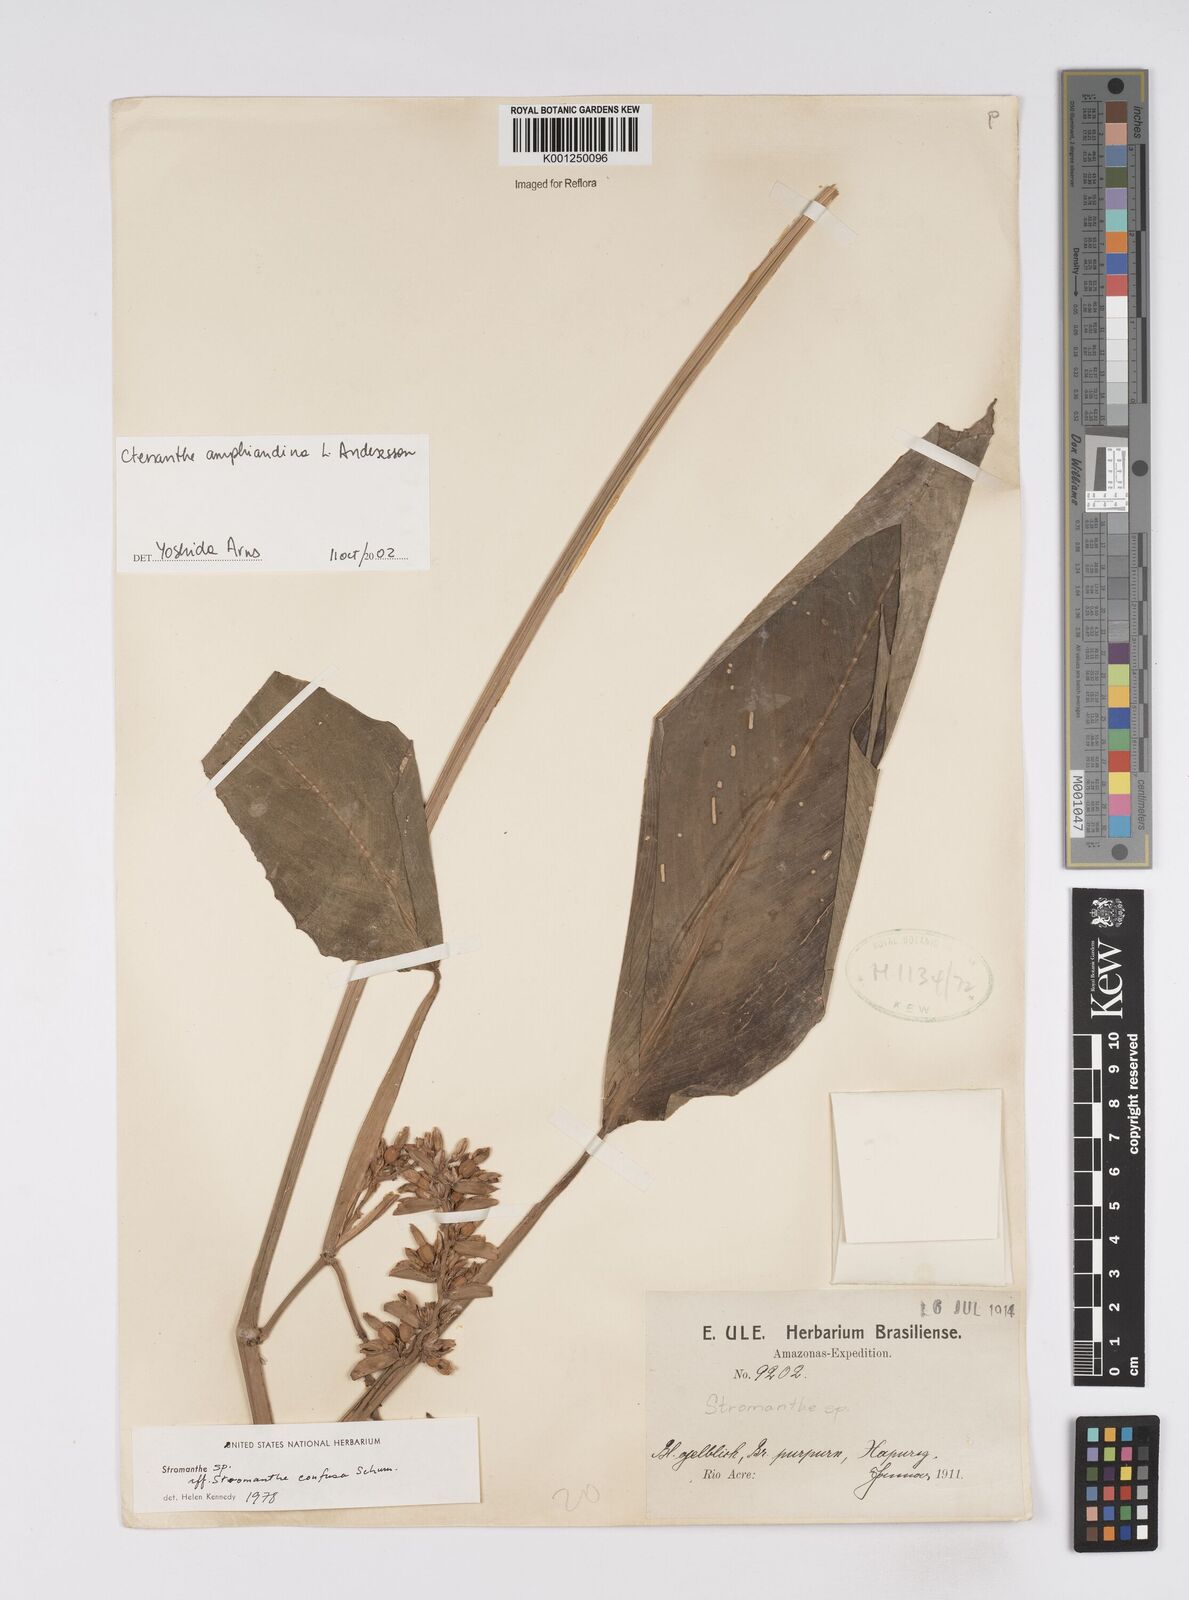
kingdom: Plantae
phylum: Tracheophyta
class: Liliopsida
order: Zingiberales
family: Marantaceae
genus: Ctenanthe
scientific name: Ctenanthe amphiandina
